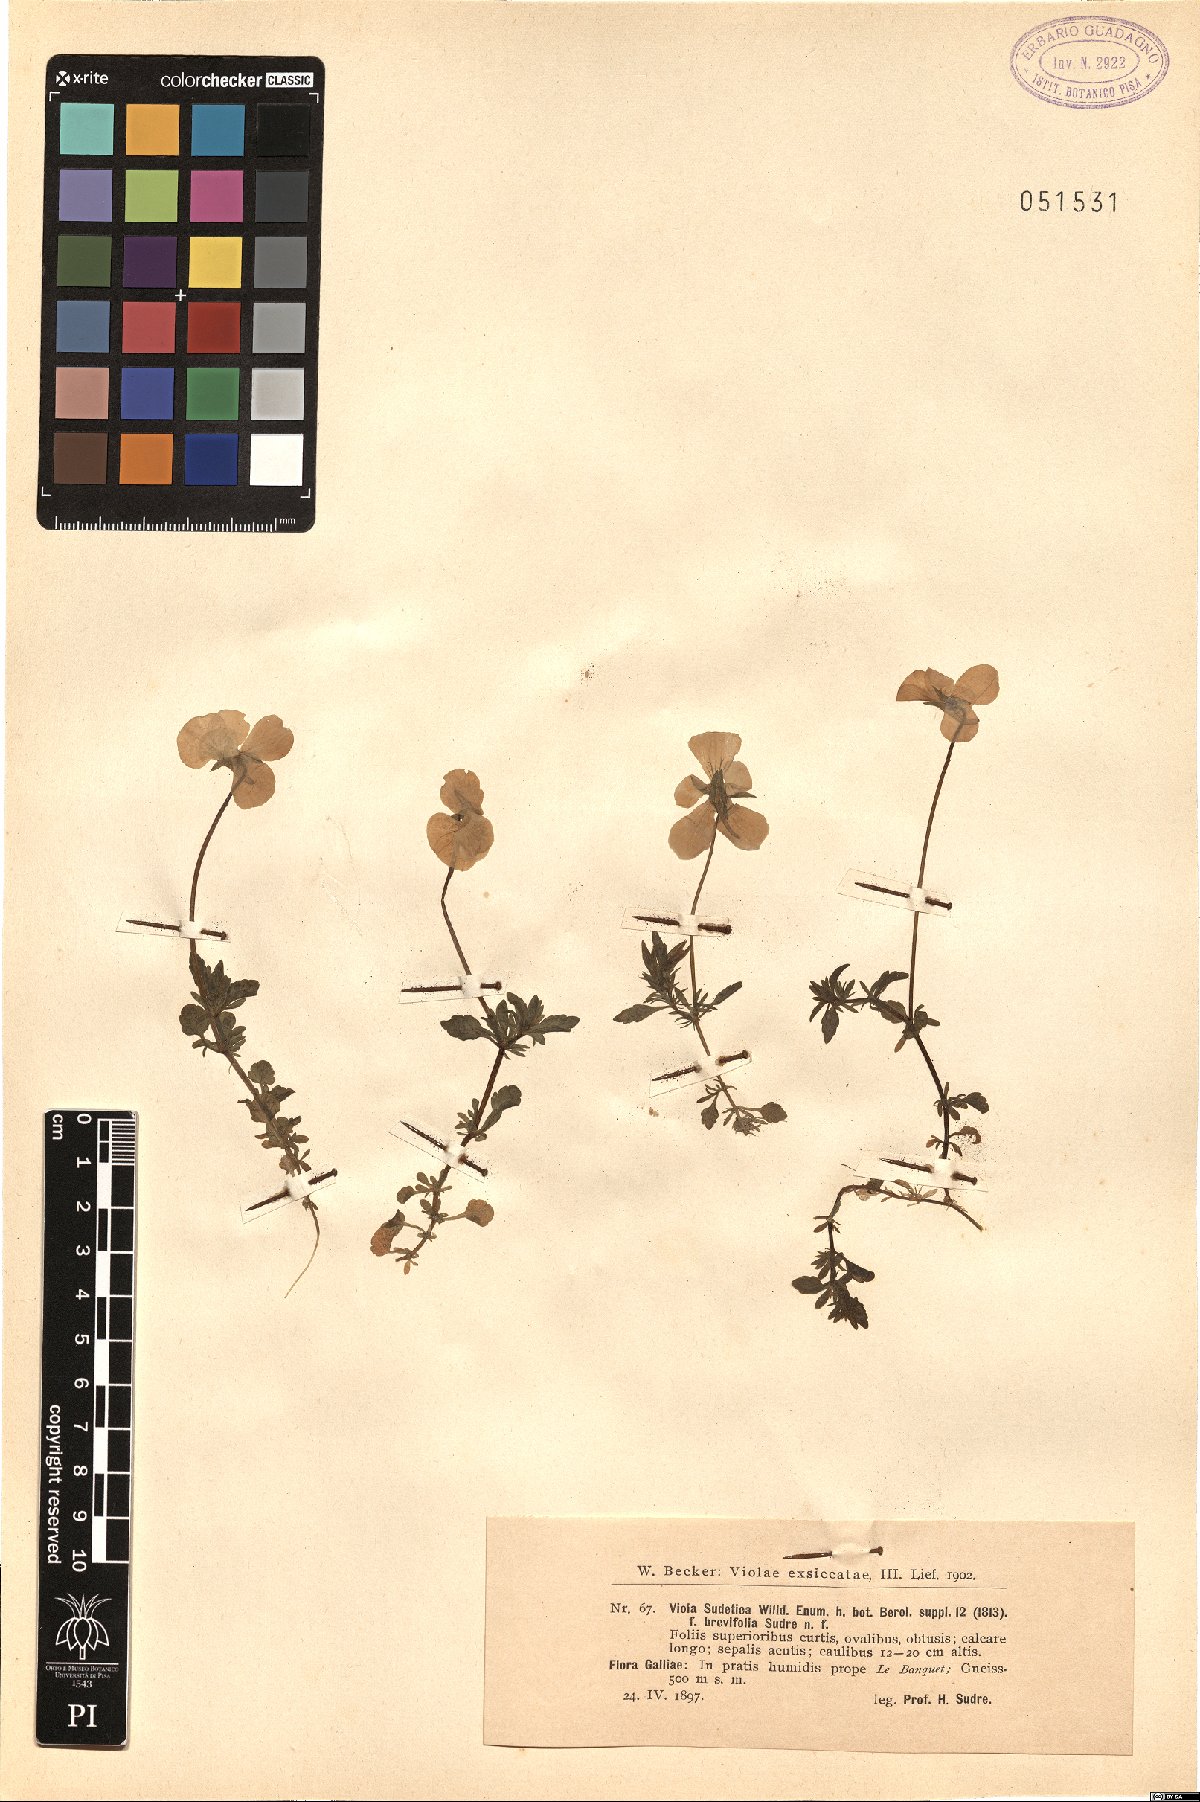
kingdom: Plantae
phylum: Tracheophyta
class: Magnoliopsida
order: Malpighiales
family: Violaceae
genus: Viola
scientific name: Viola lutea
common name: Mountain pansy
